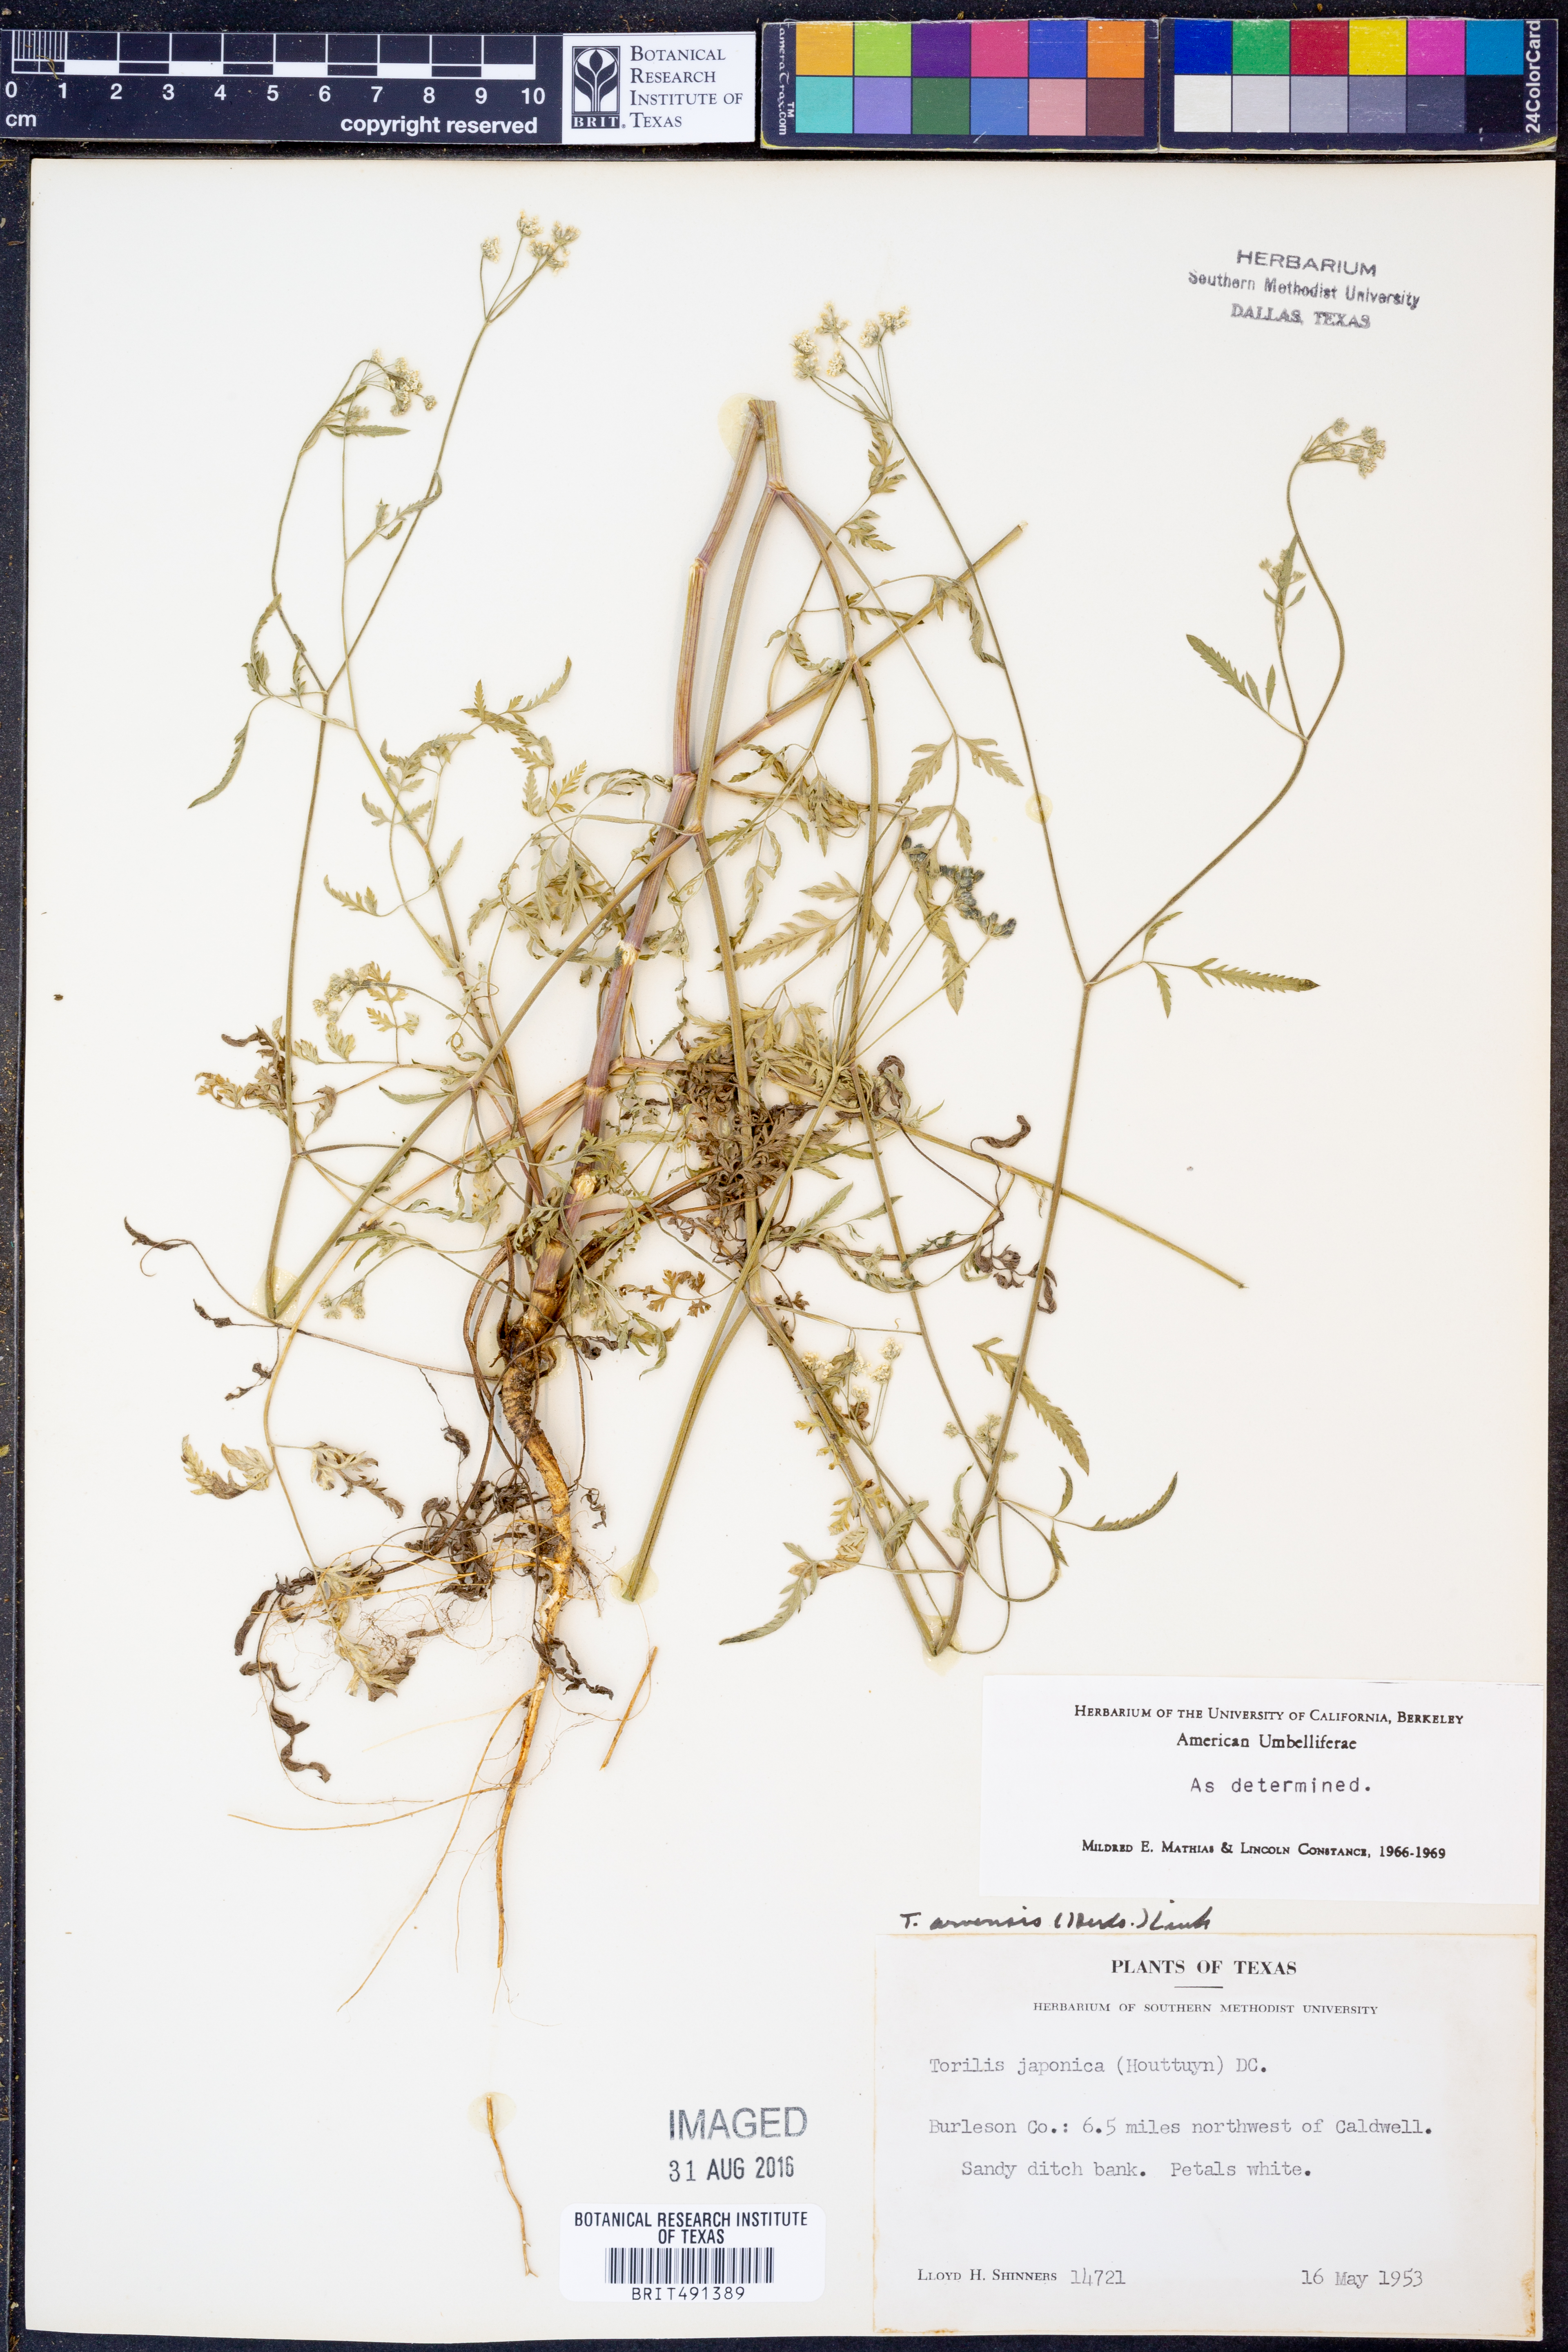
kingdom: Plantae
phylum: Tracheophyta
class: Magnoliopsida
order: Apiales
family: Apiaceae
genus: Torilis
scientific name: Torilis arvensis
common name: Spreading hedge-parsley
